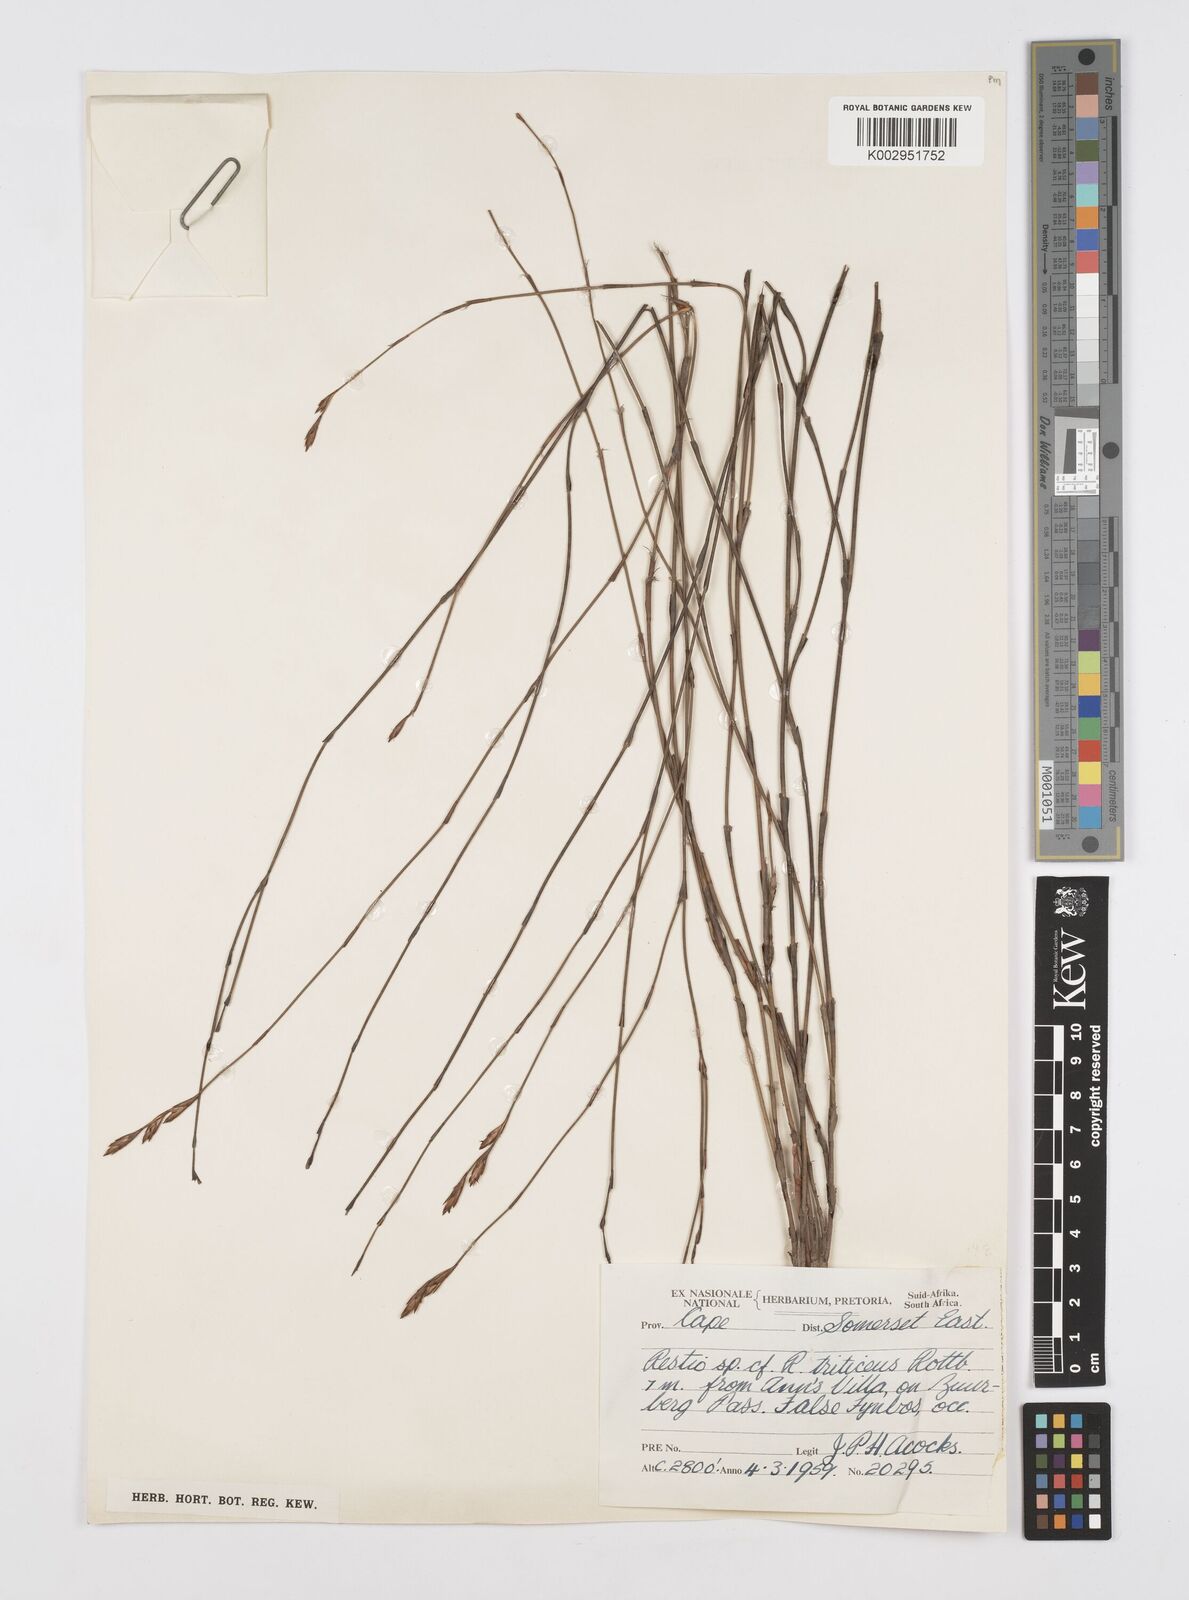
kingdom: Plantae
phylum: Tracheophyta
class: Liliopsida
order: Poales
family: Restionaceae
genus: Restio
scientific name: Restio triticeus
